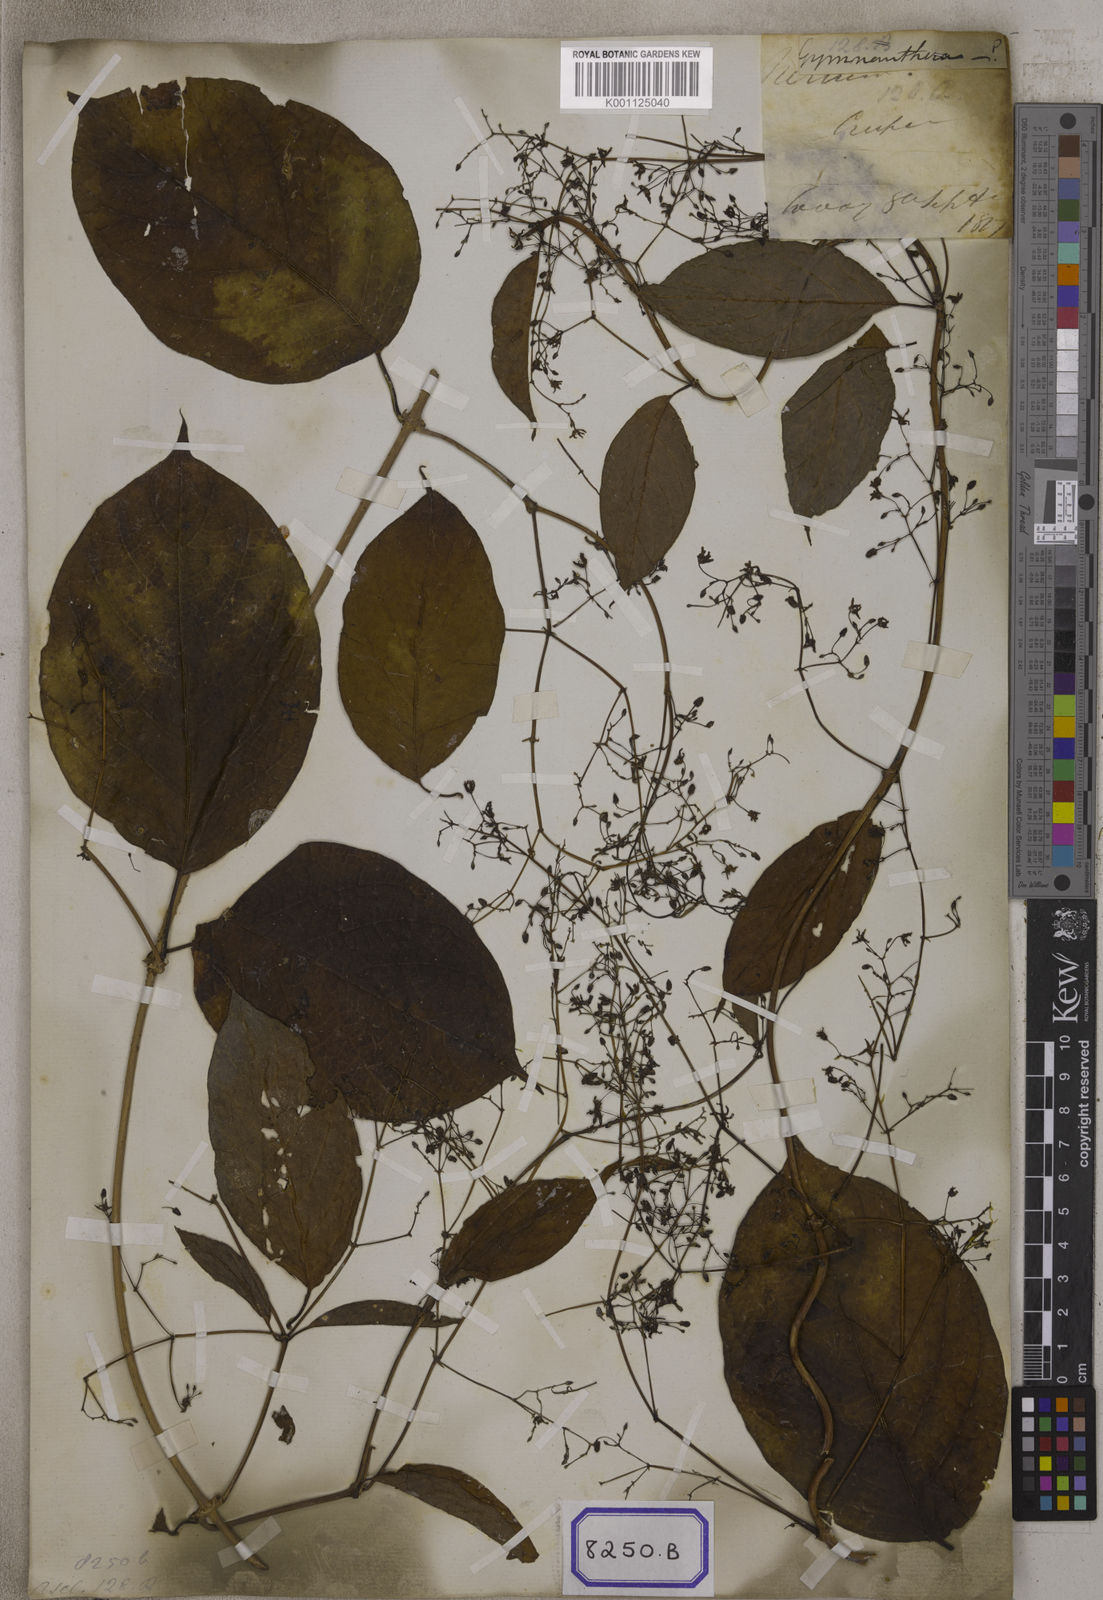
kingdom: Plantae
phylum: Tracheophyta
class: Magnoliopsida
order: Gentianales
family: Apocynaceae
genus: Myriopteron
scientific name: Myriopteron extensum
